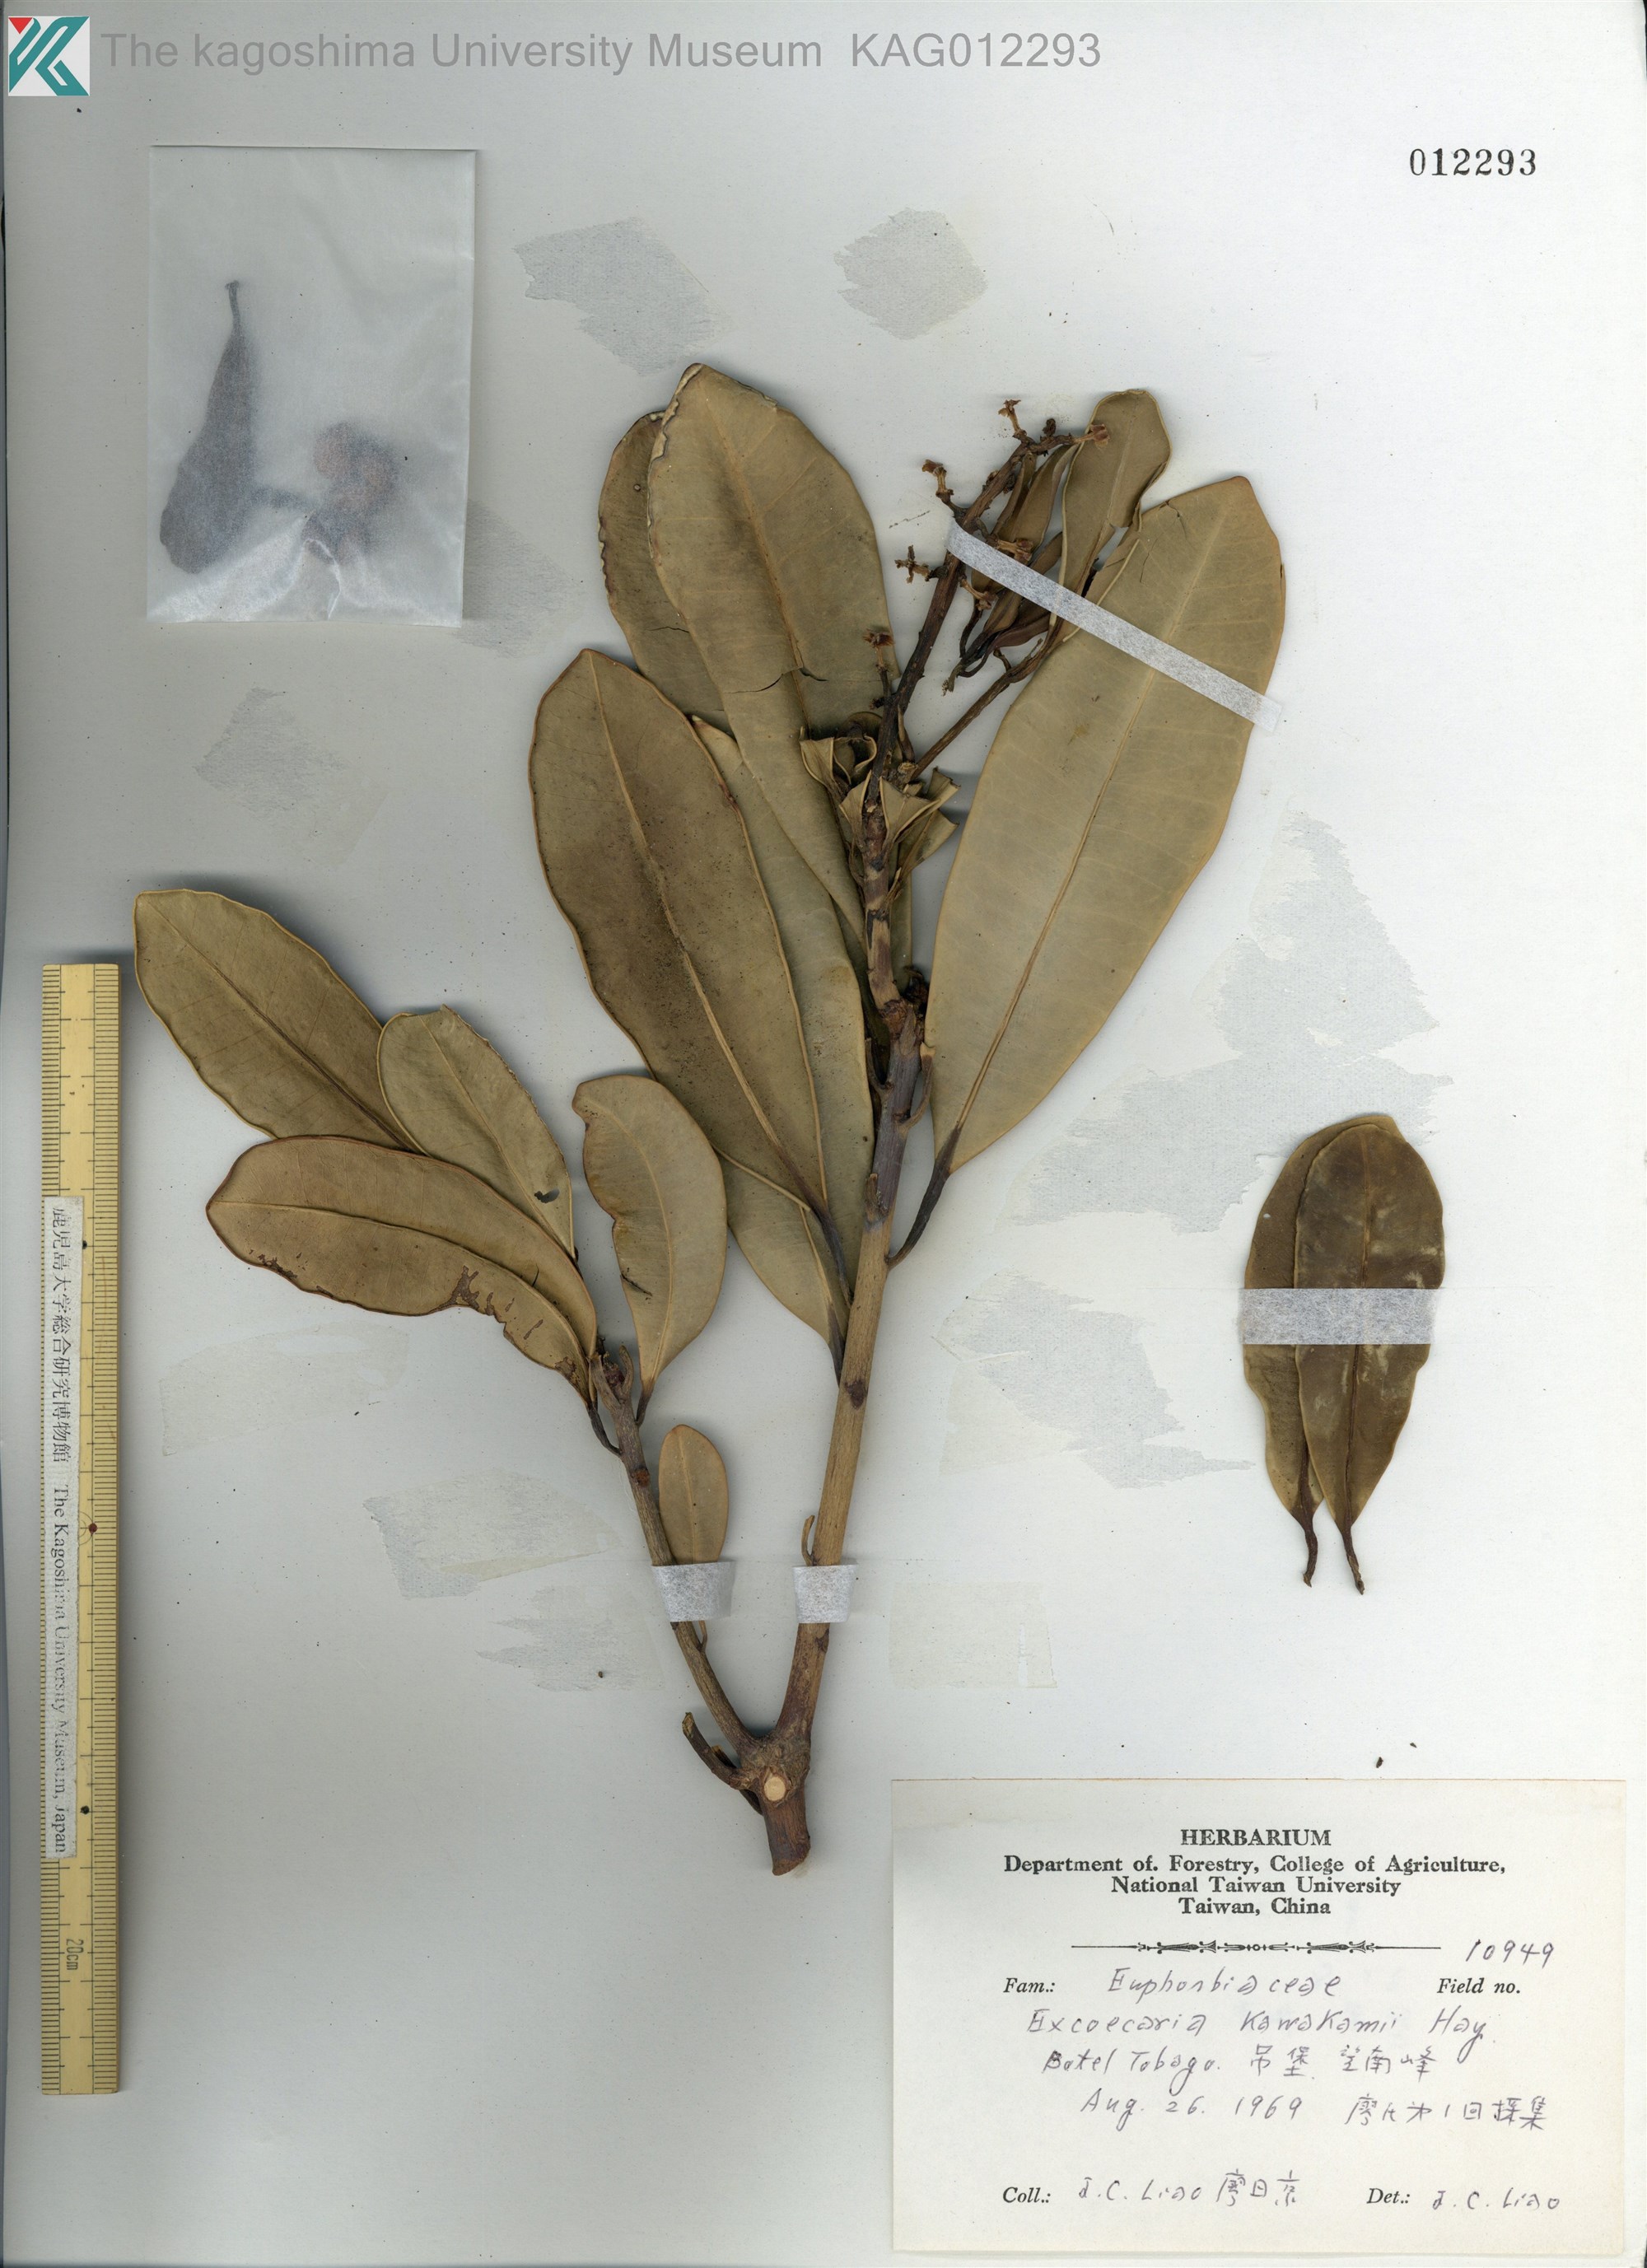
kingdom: Plantae
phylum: Tracheophyta
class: Magnoliopsida
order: Malpighiales
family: Euphorbiaceae
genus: Excoecaria
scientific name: Excoecaria kawakamii
